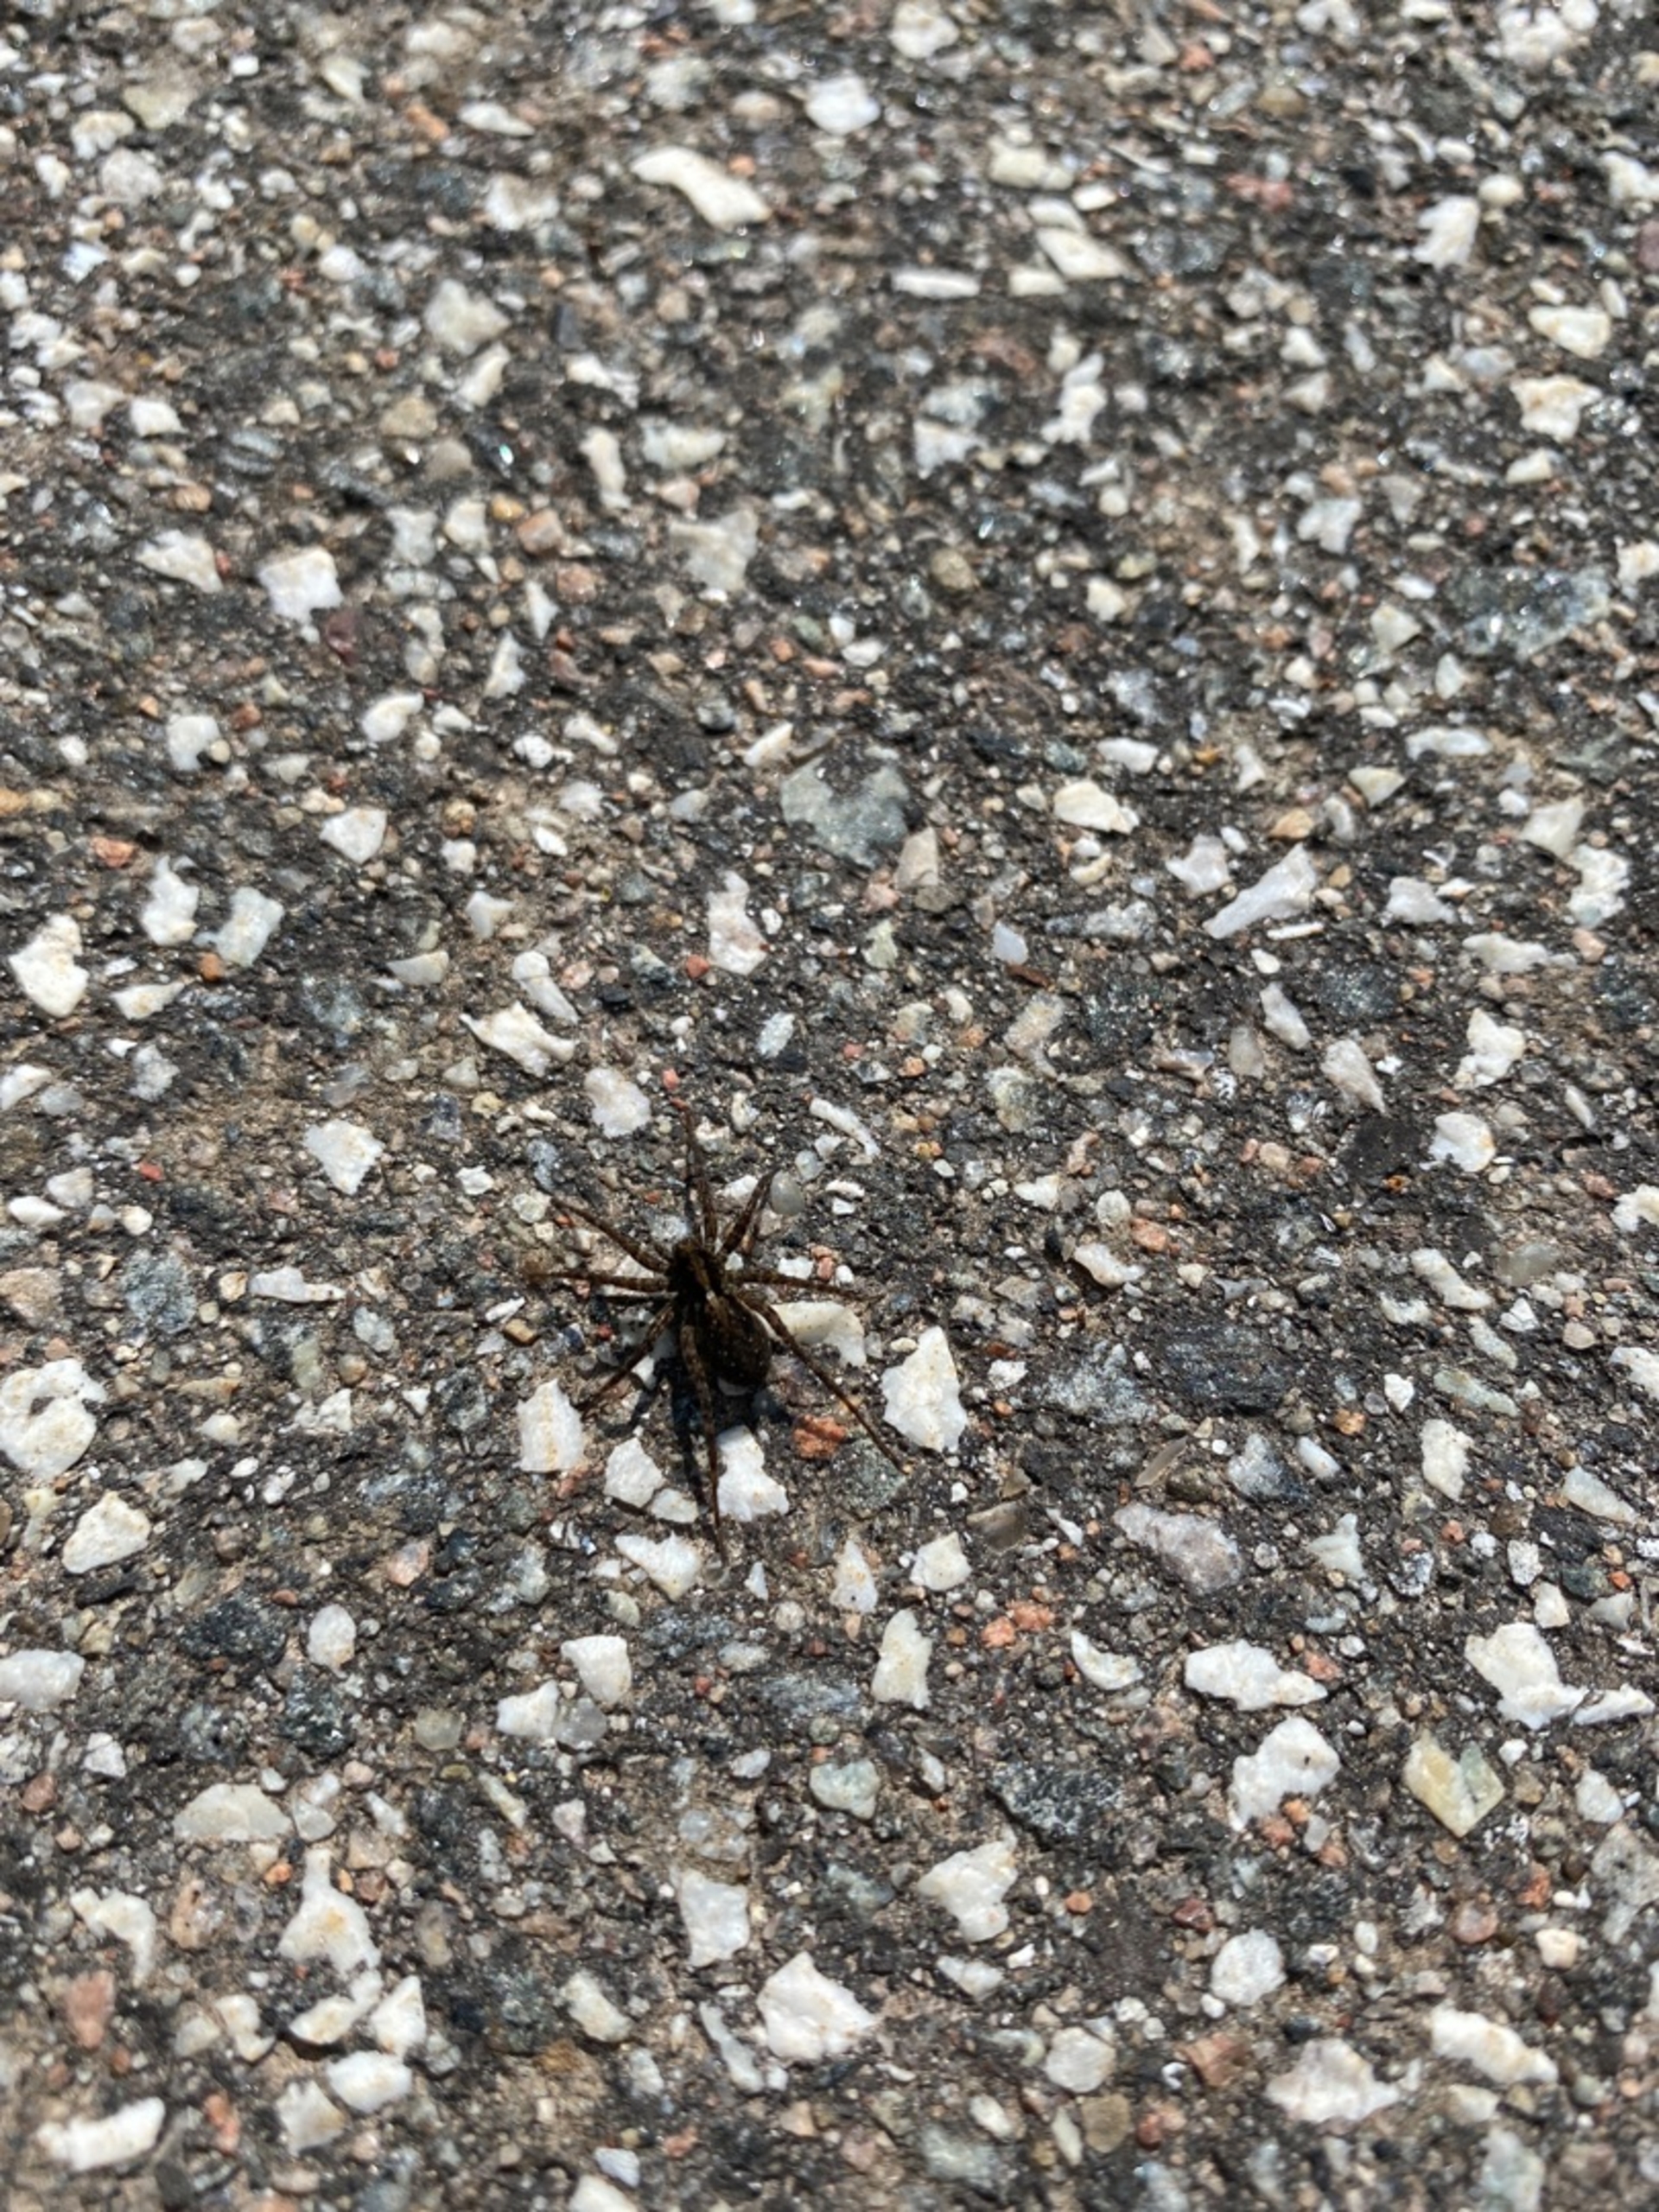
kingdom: Animalia
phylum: Arthropoda
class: Arachnida
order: Araneae
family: Lycosidae
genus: Pardosa
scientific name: Pardosa
